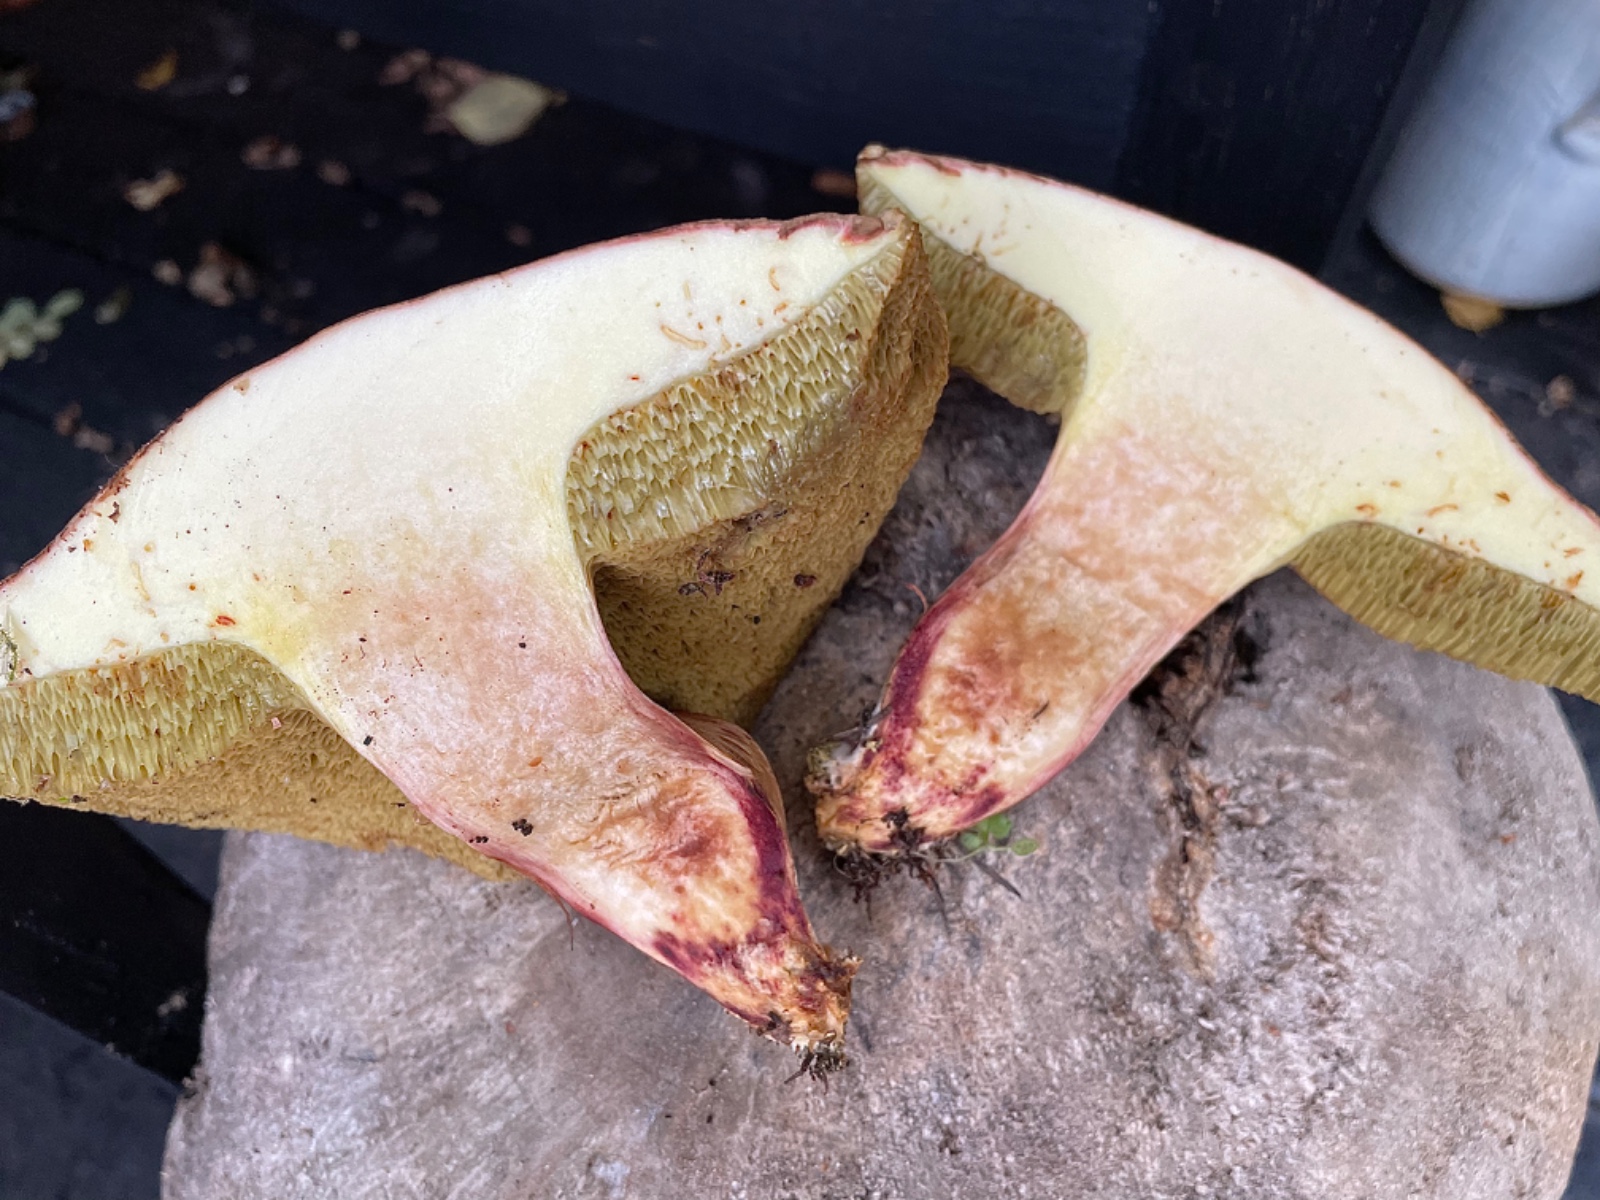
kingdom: Fungi
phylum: Basidiomycota
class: Agaricomycetes
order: Boletales
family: Boletaceae
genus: Hortiboletus
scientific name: Hortiboletus
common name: dværgrørhat
